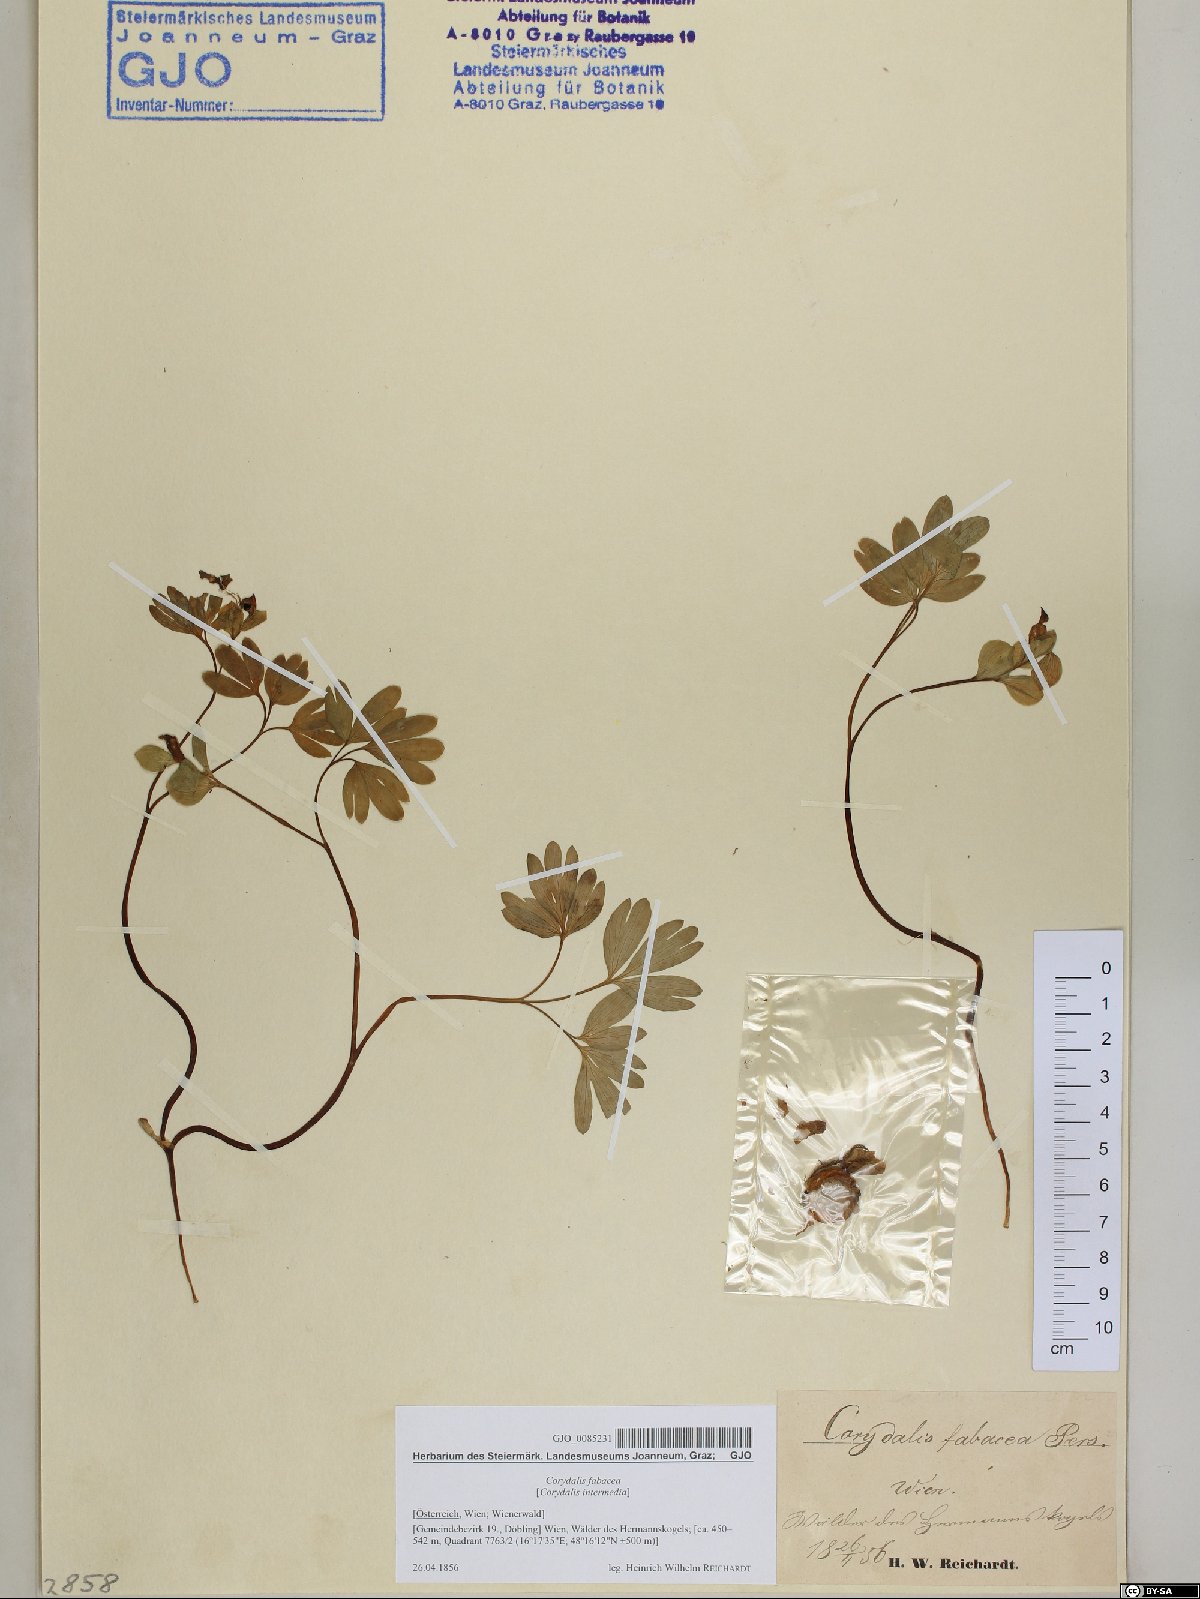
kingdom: Plantae
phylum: Tracheophyta
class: Magnoliopsida
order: Ranunculales
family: Papaveraceae
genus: Corydalis
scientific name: Corydalis intermedia
